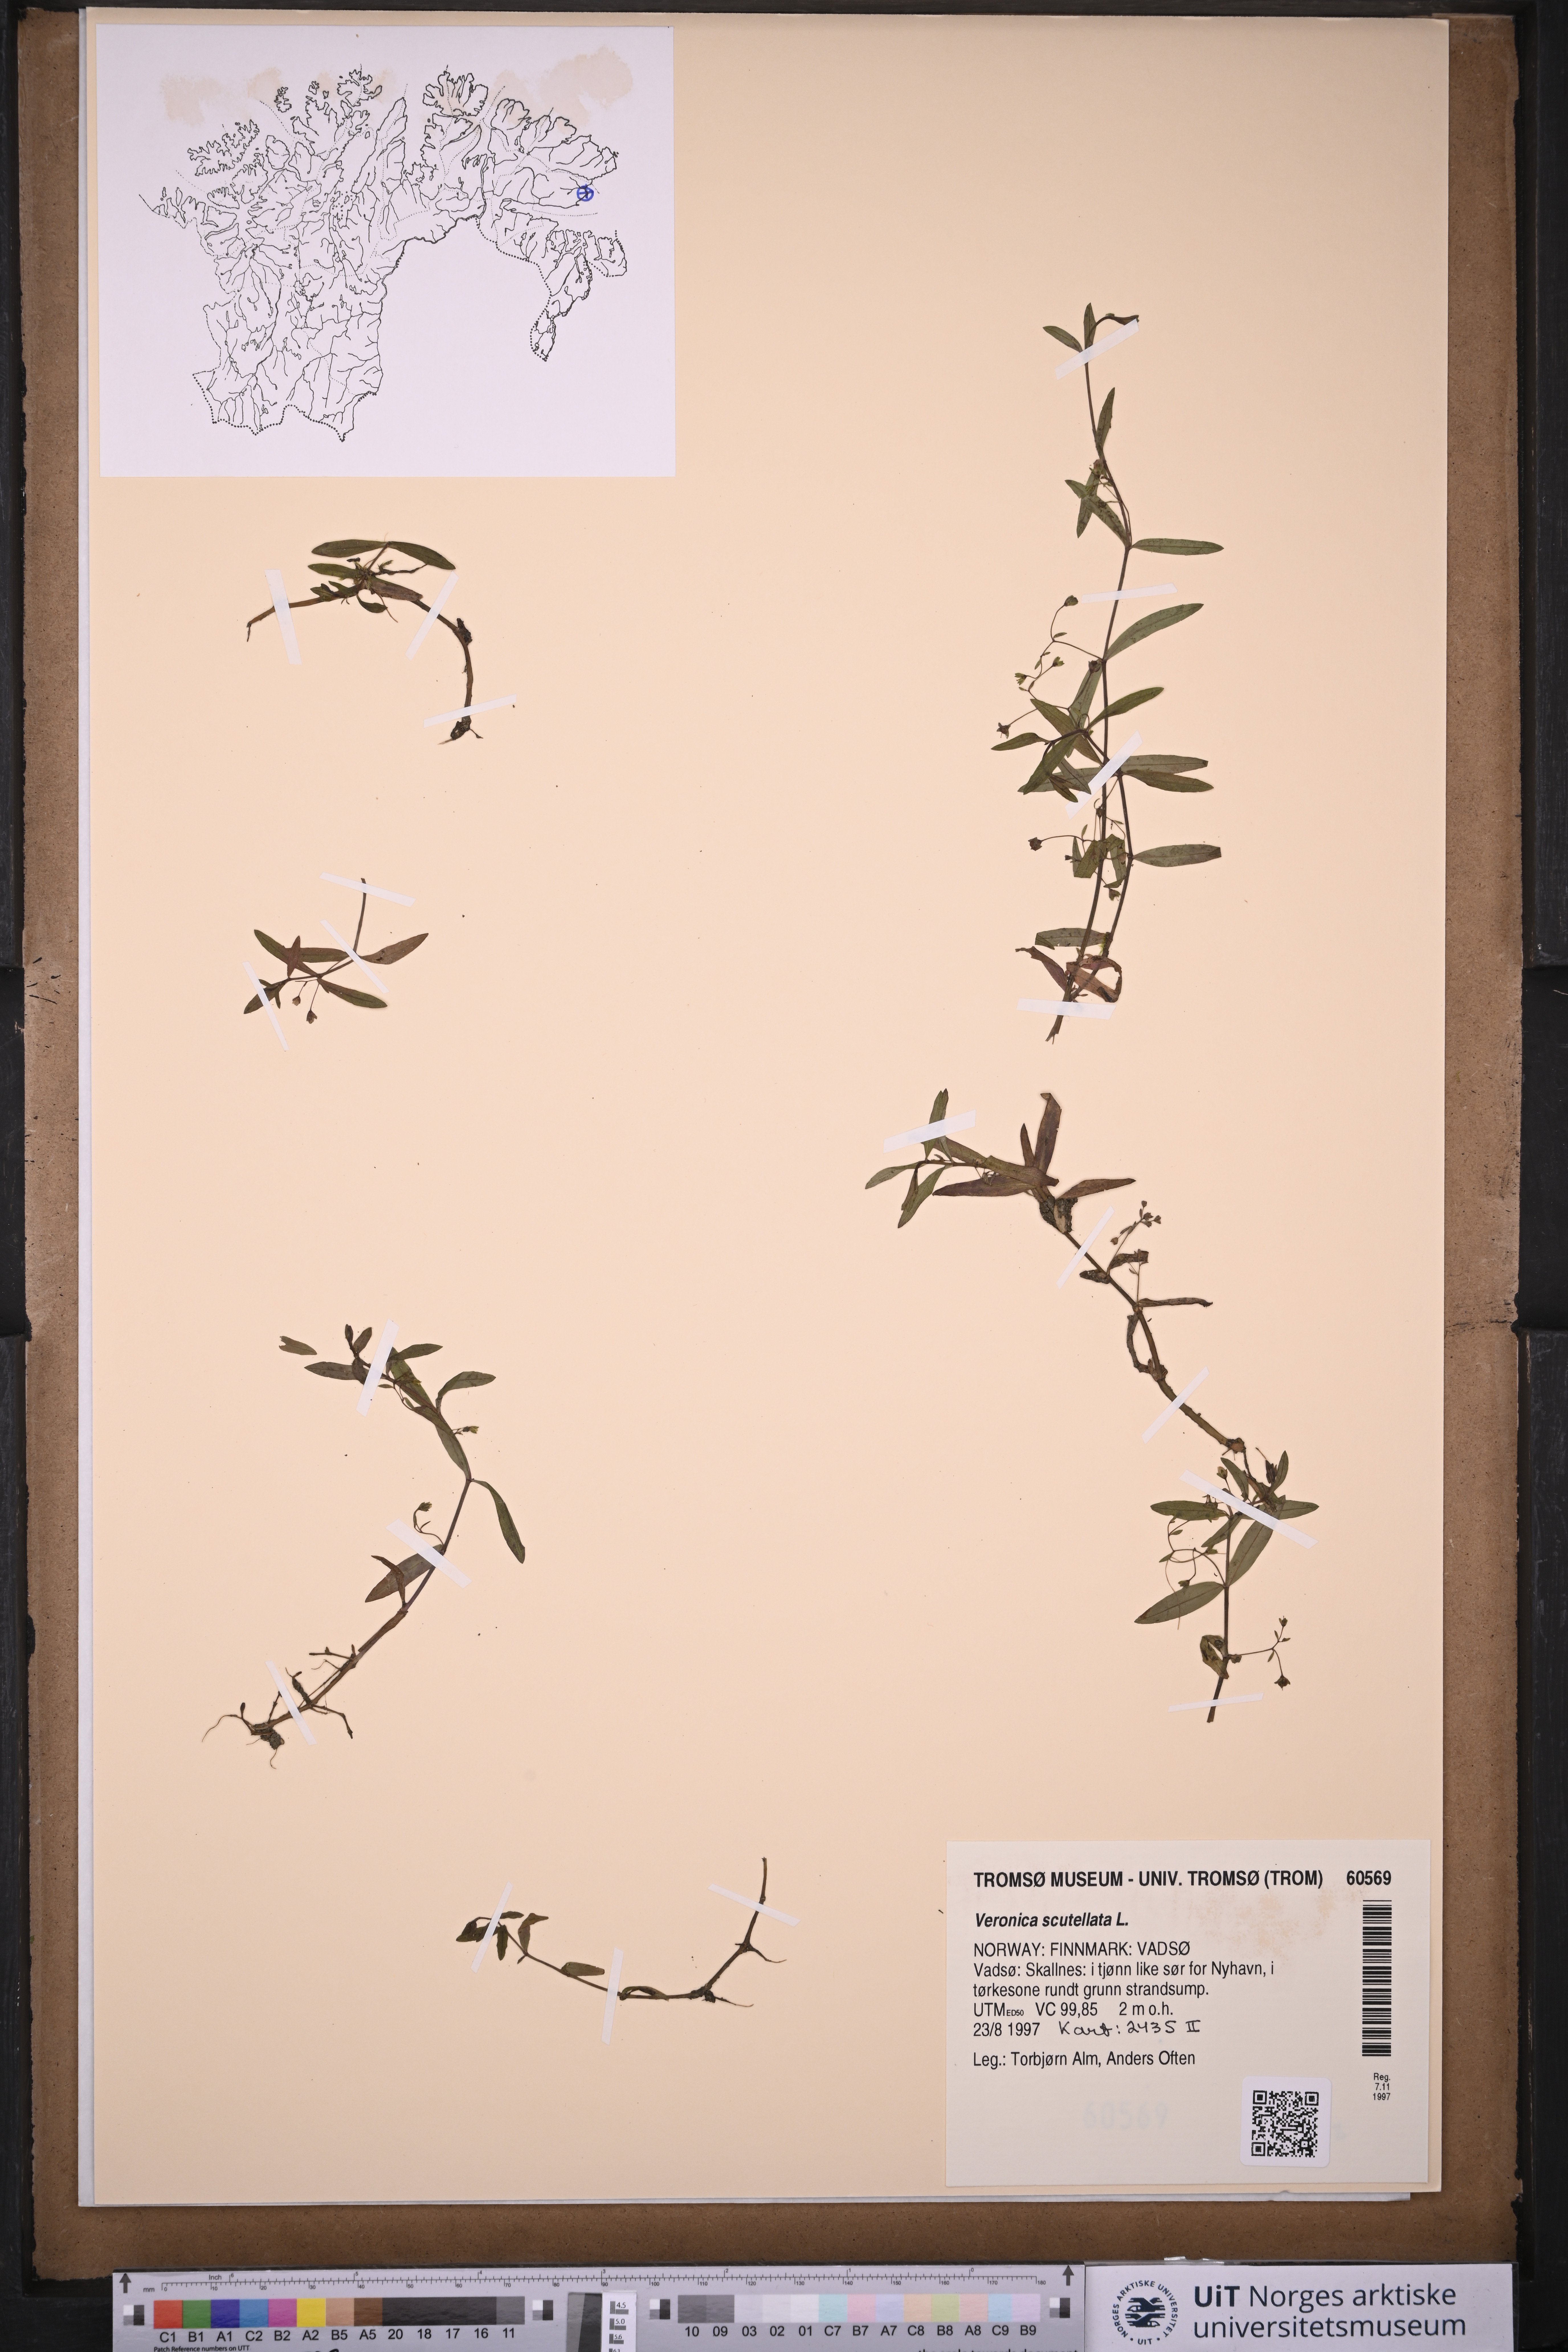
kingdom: Plantae
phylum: Tracheophyta
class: Magnoliopsida
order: Lamiales
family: Plantaginaceae
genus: Veronica
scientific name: Veronica scutellata
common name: Marsh speedwell
